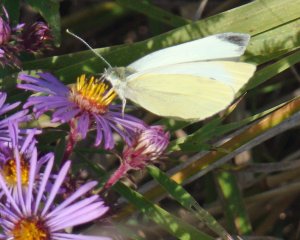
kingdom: Animalia
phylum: Arthropoda
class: Insecta
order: Lepidoptera
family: Pieridae
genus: Pieris
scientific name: Pieris rapae
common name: Cabbage White
